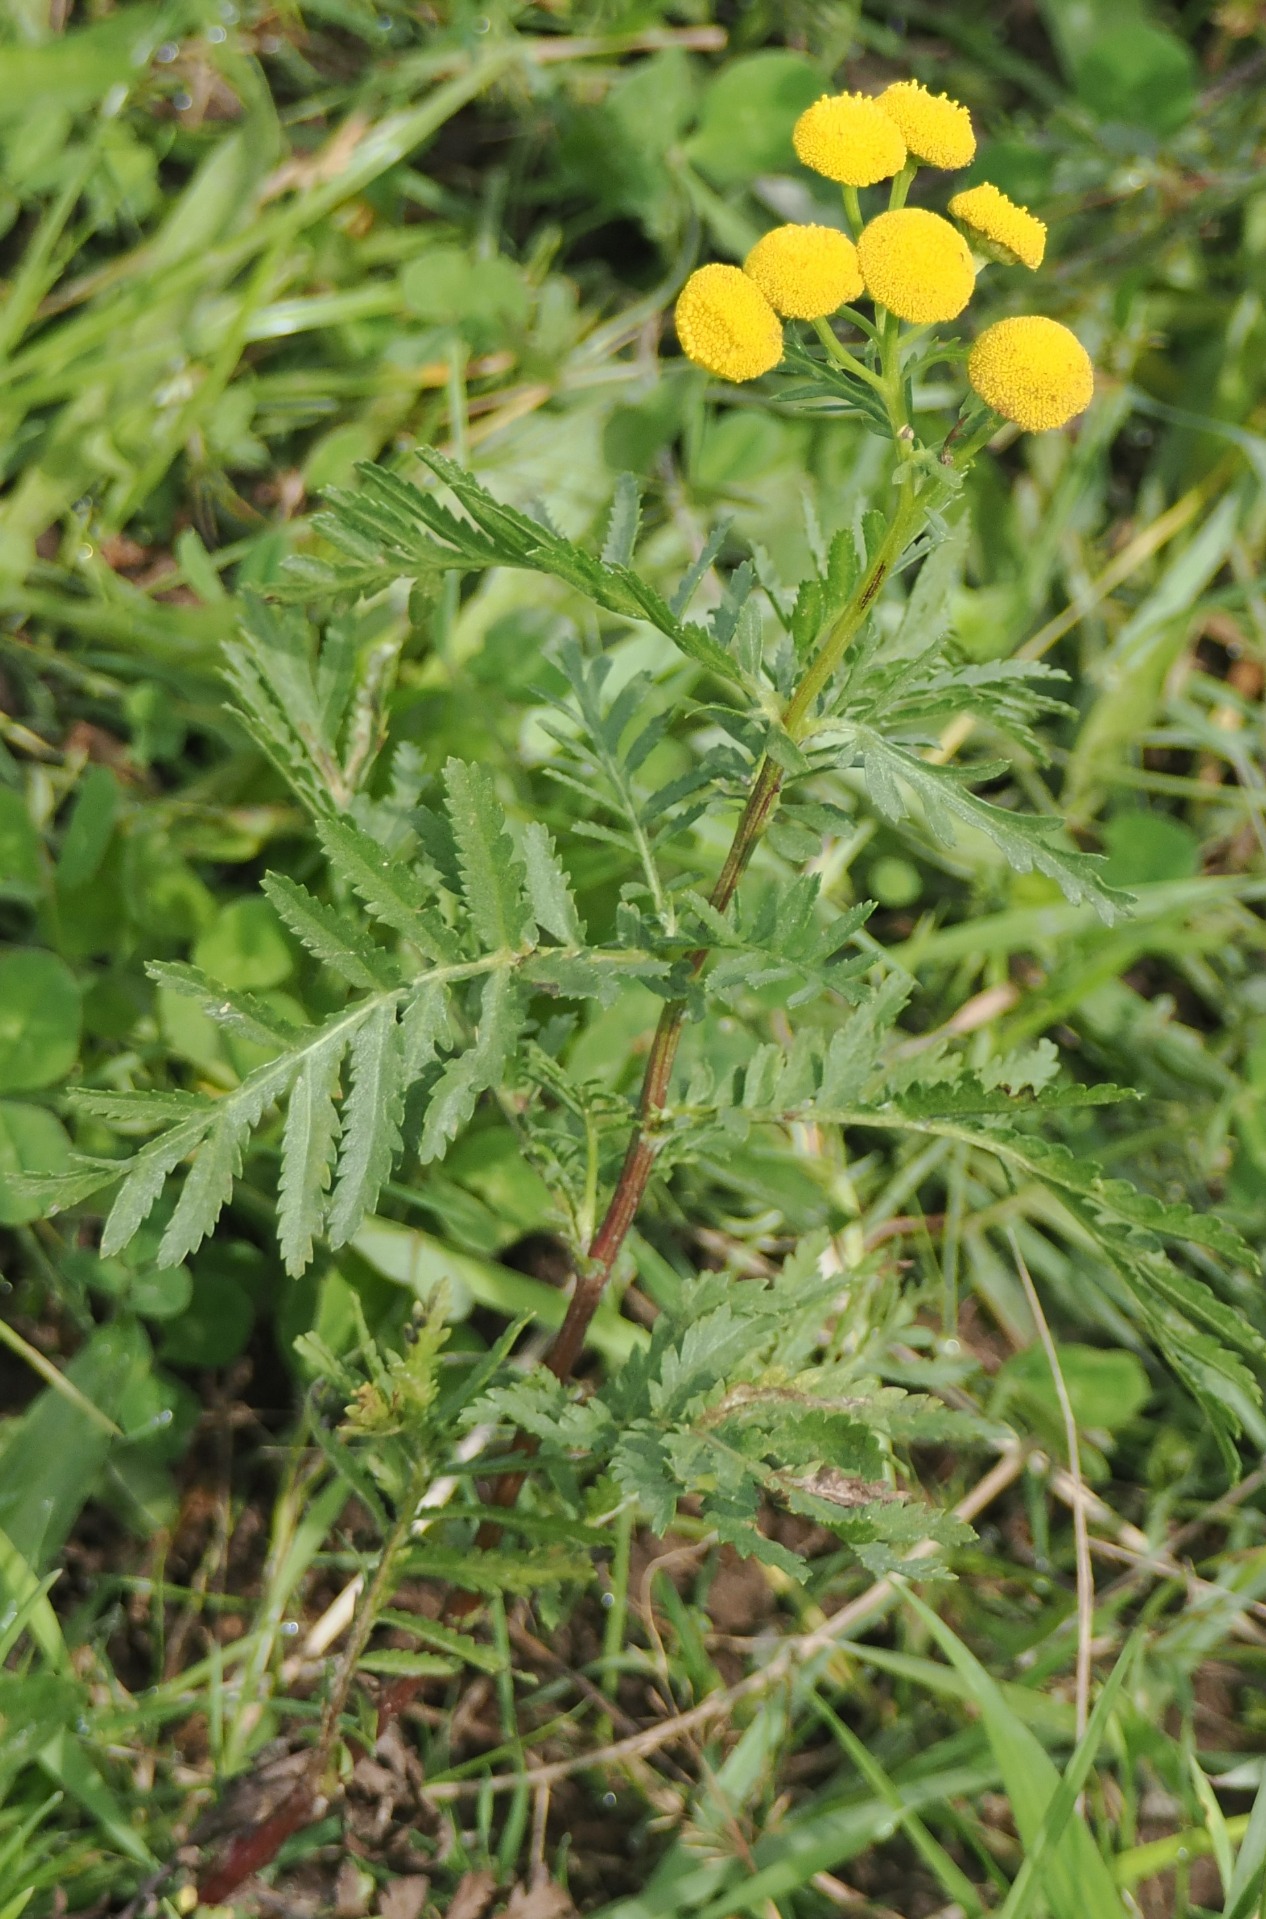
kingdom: Plantae
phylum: Tracheophyta
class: Magnoliopsida
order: Asterales
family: Asteraceae
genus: Tanacetum
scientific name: Tanacetum vulgare
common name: Rejnfan
